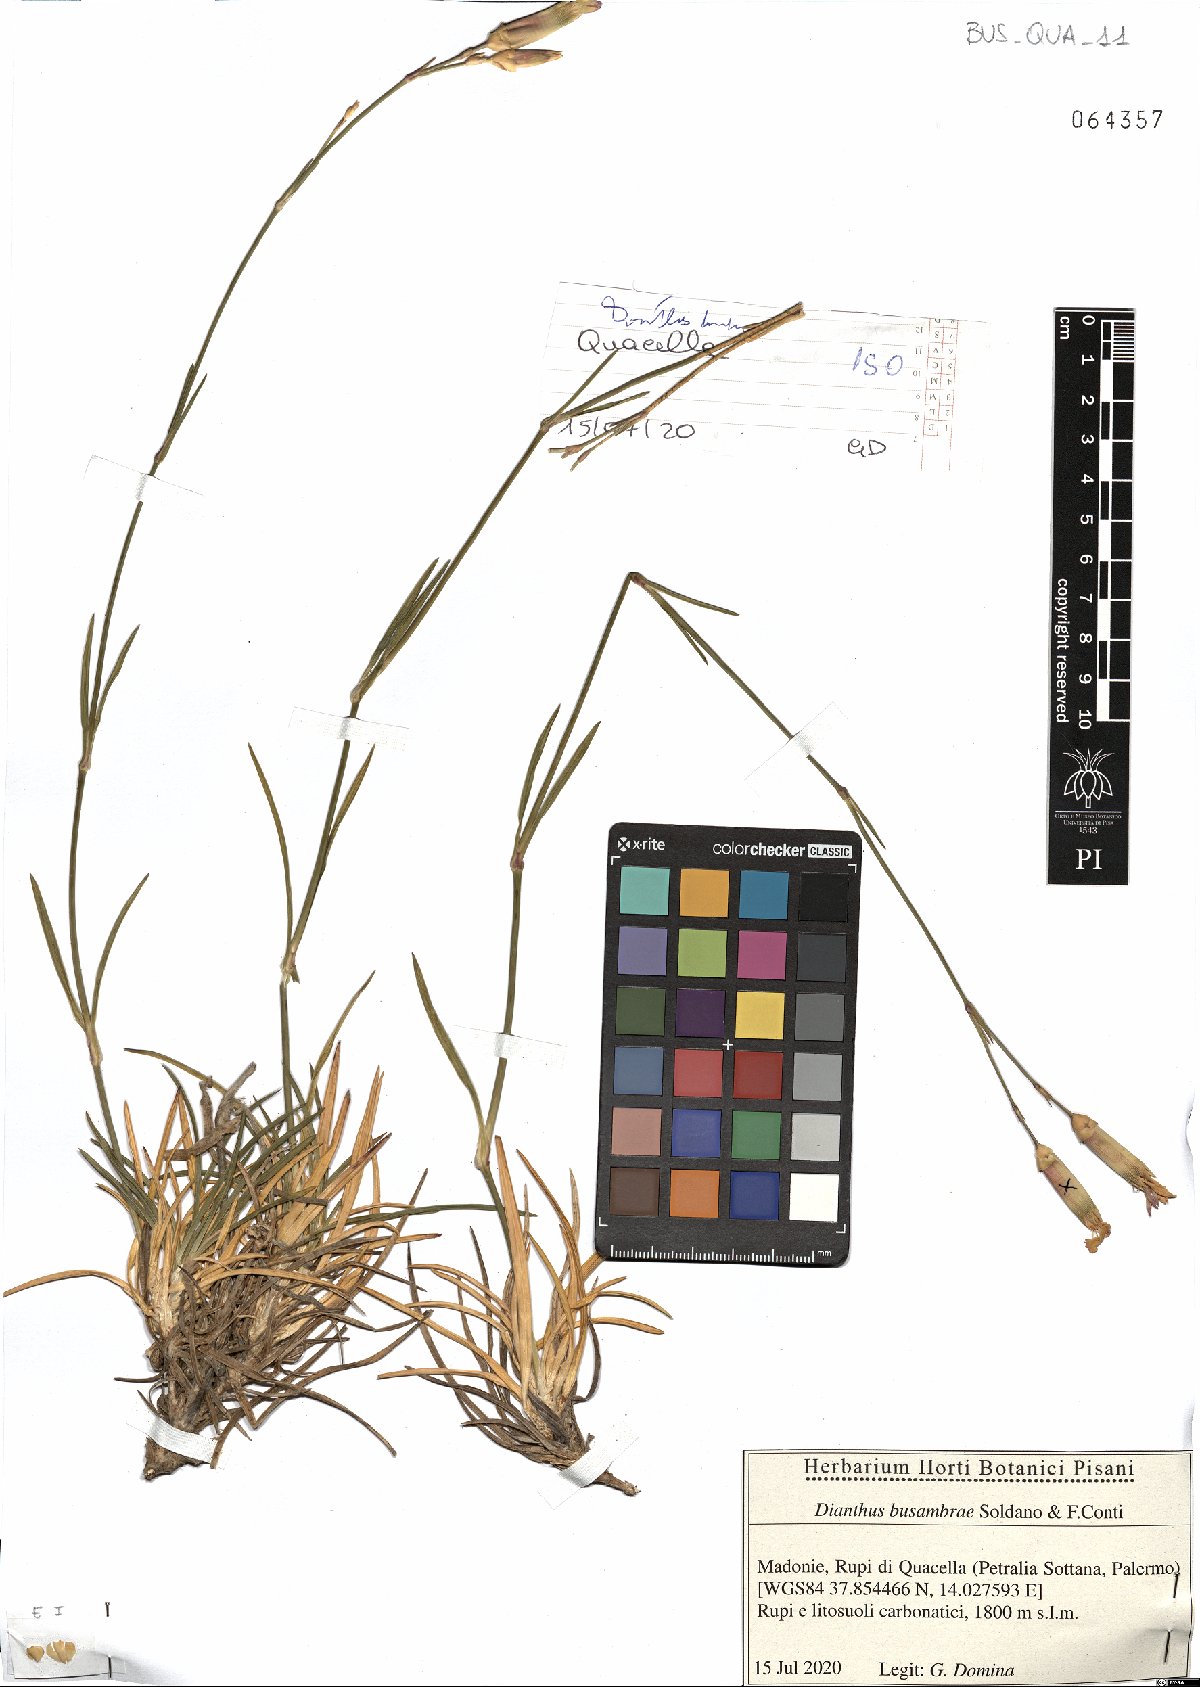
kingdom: Plantae
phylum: Tracheophyta
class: Magnoliopsida
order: Caryophyllales
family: Caryophyllaceae
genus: Dianthus
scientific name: Dianthus busambrae
